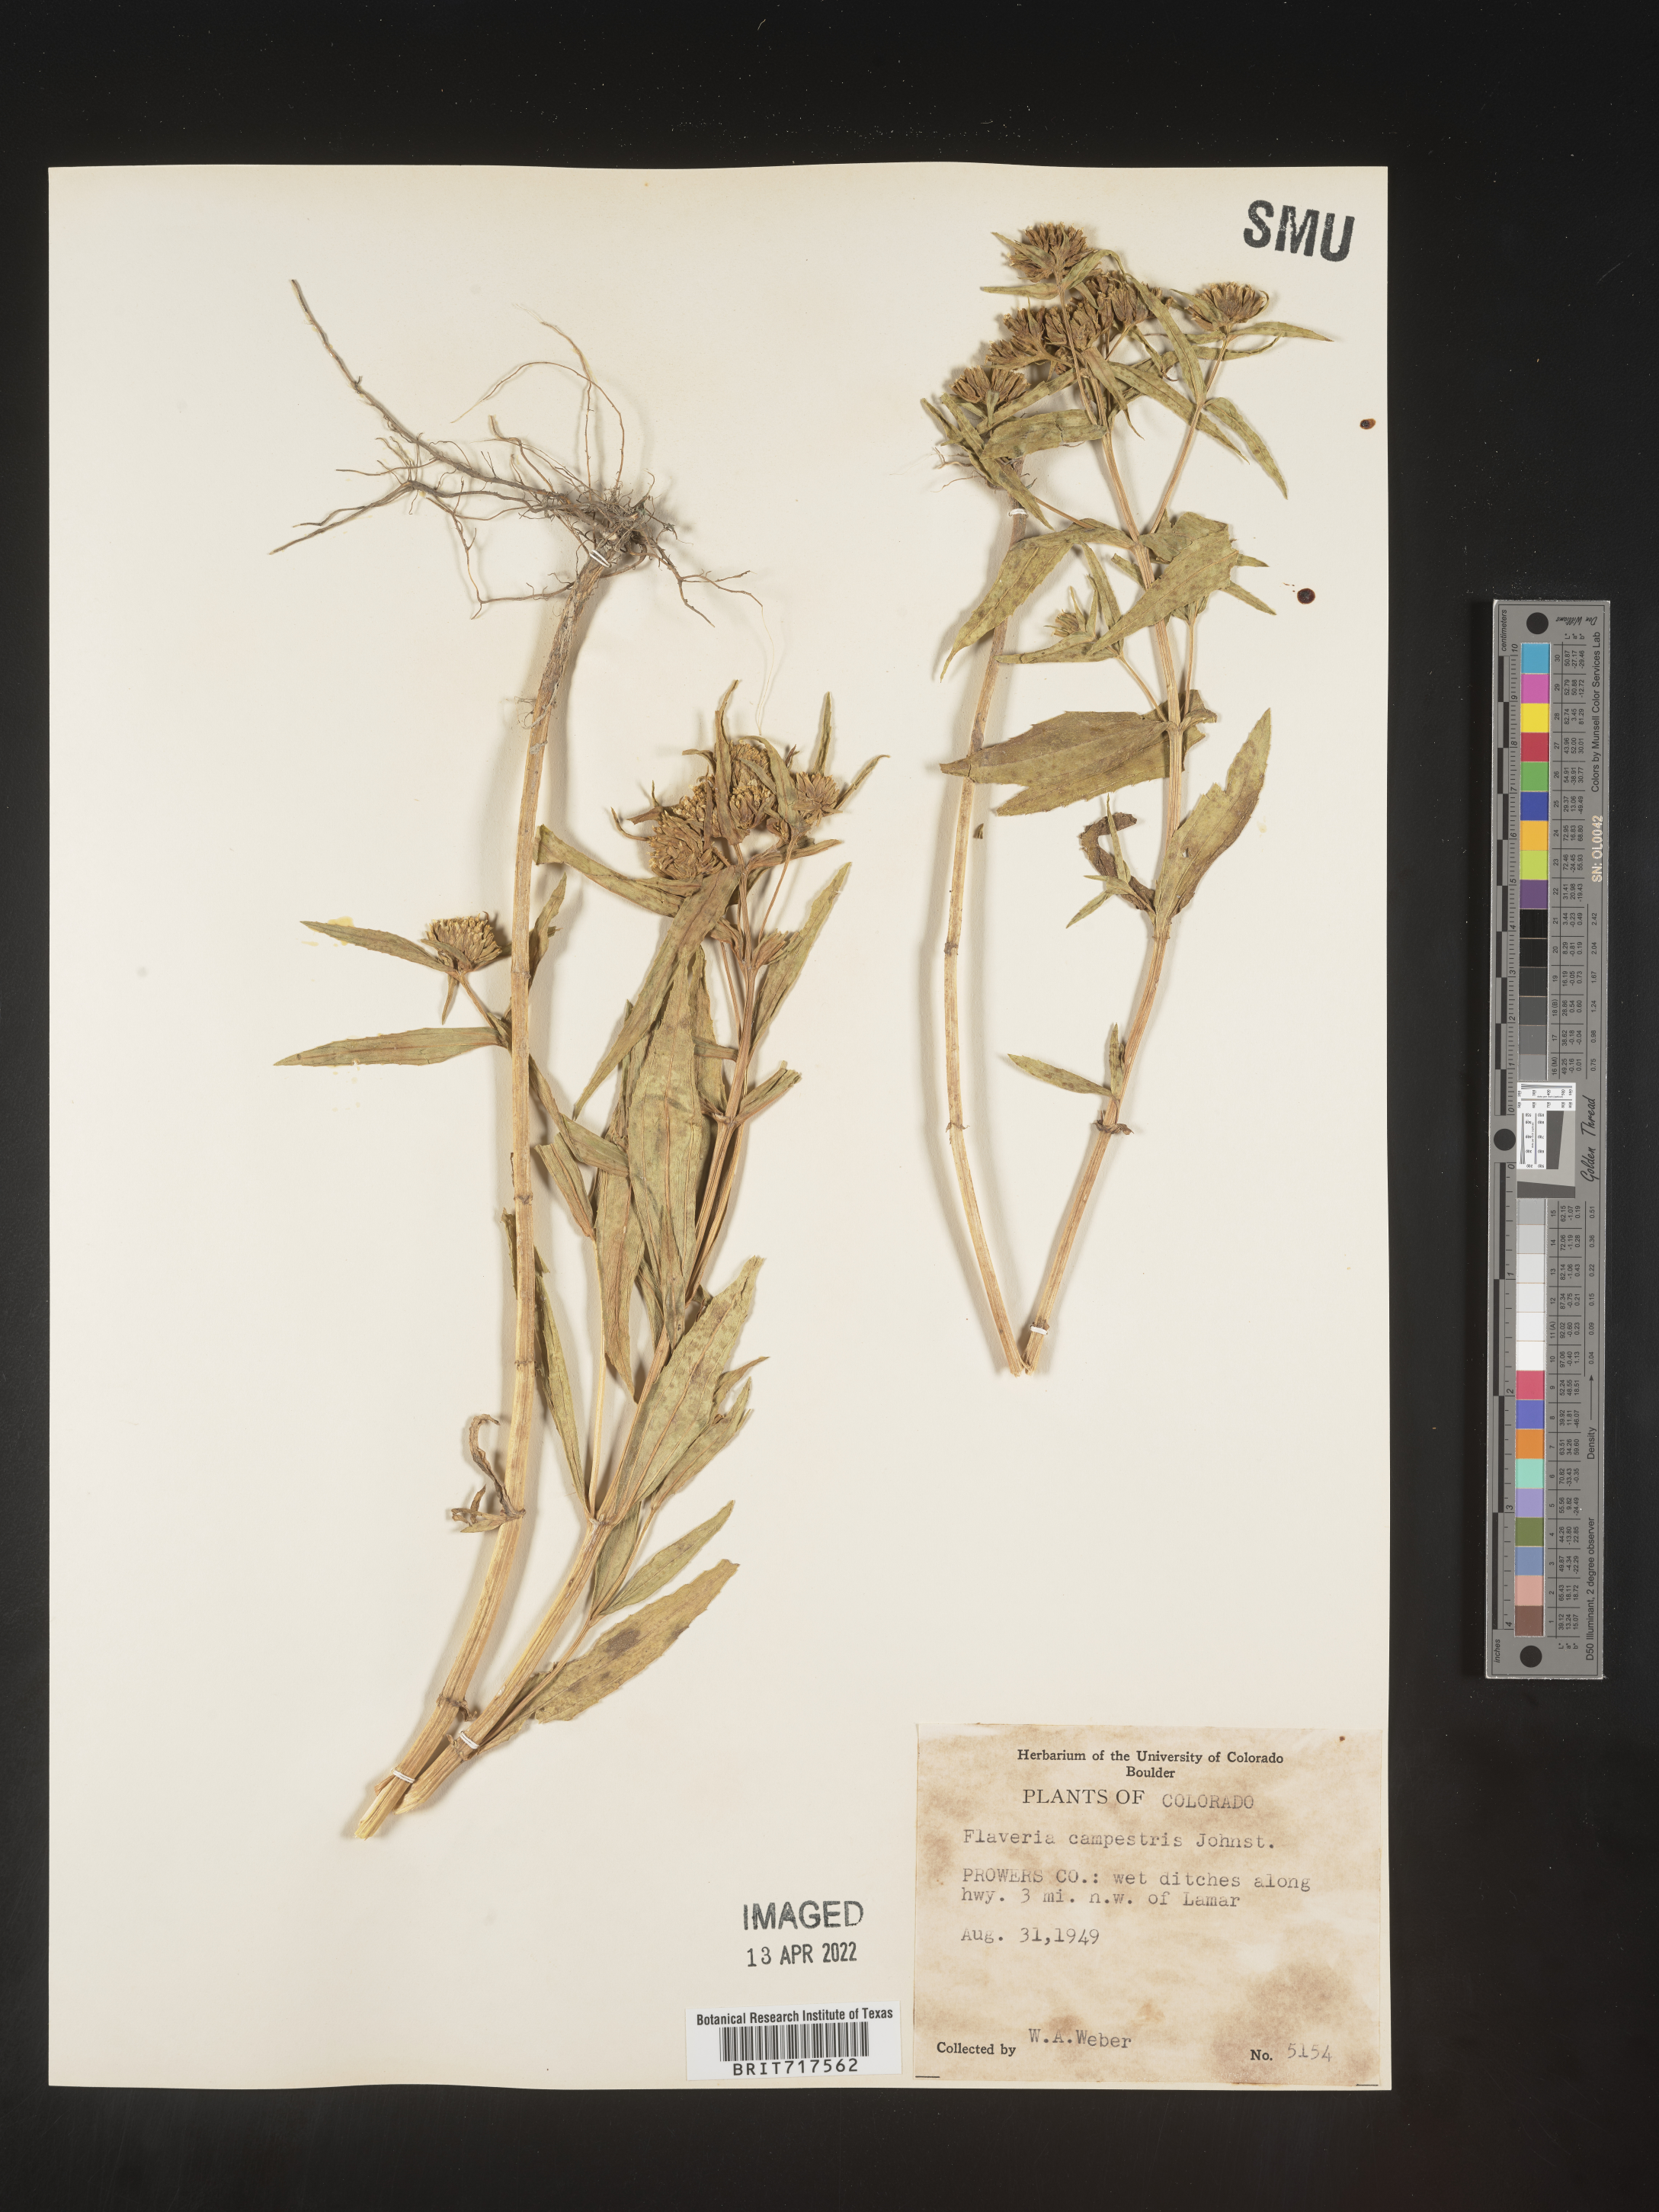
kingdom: Plantae
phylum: Tracheophyta
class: Magnoliopsida
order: Asterales
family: Asteraceae
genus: Flaveria
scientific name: Flaveria campestris
